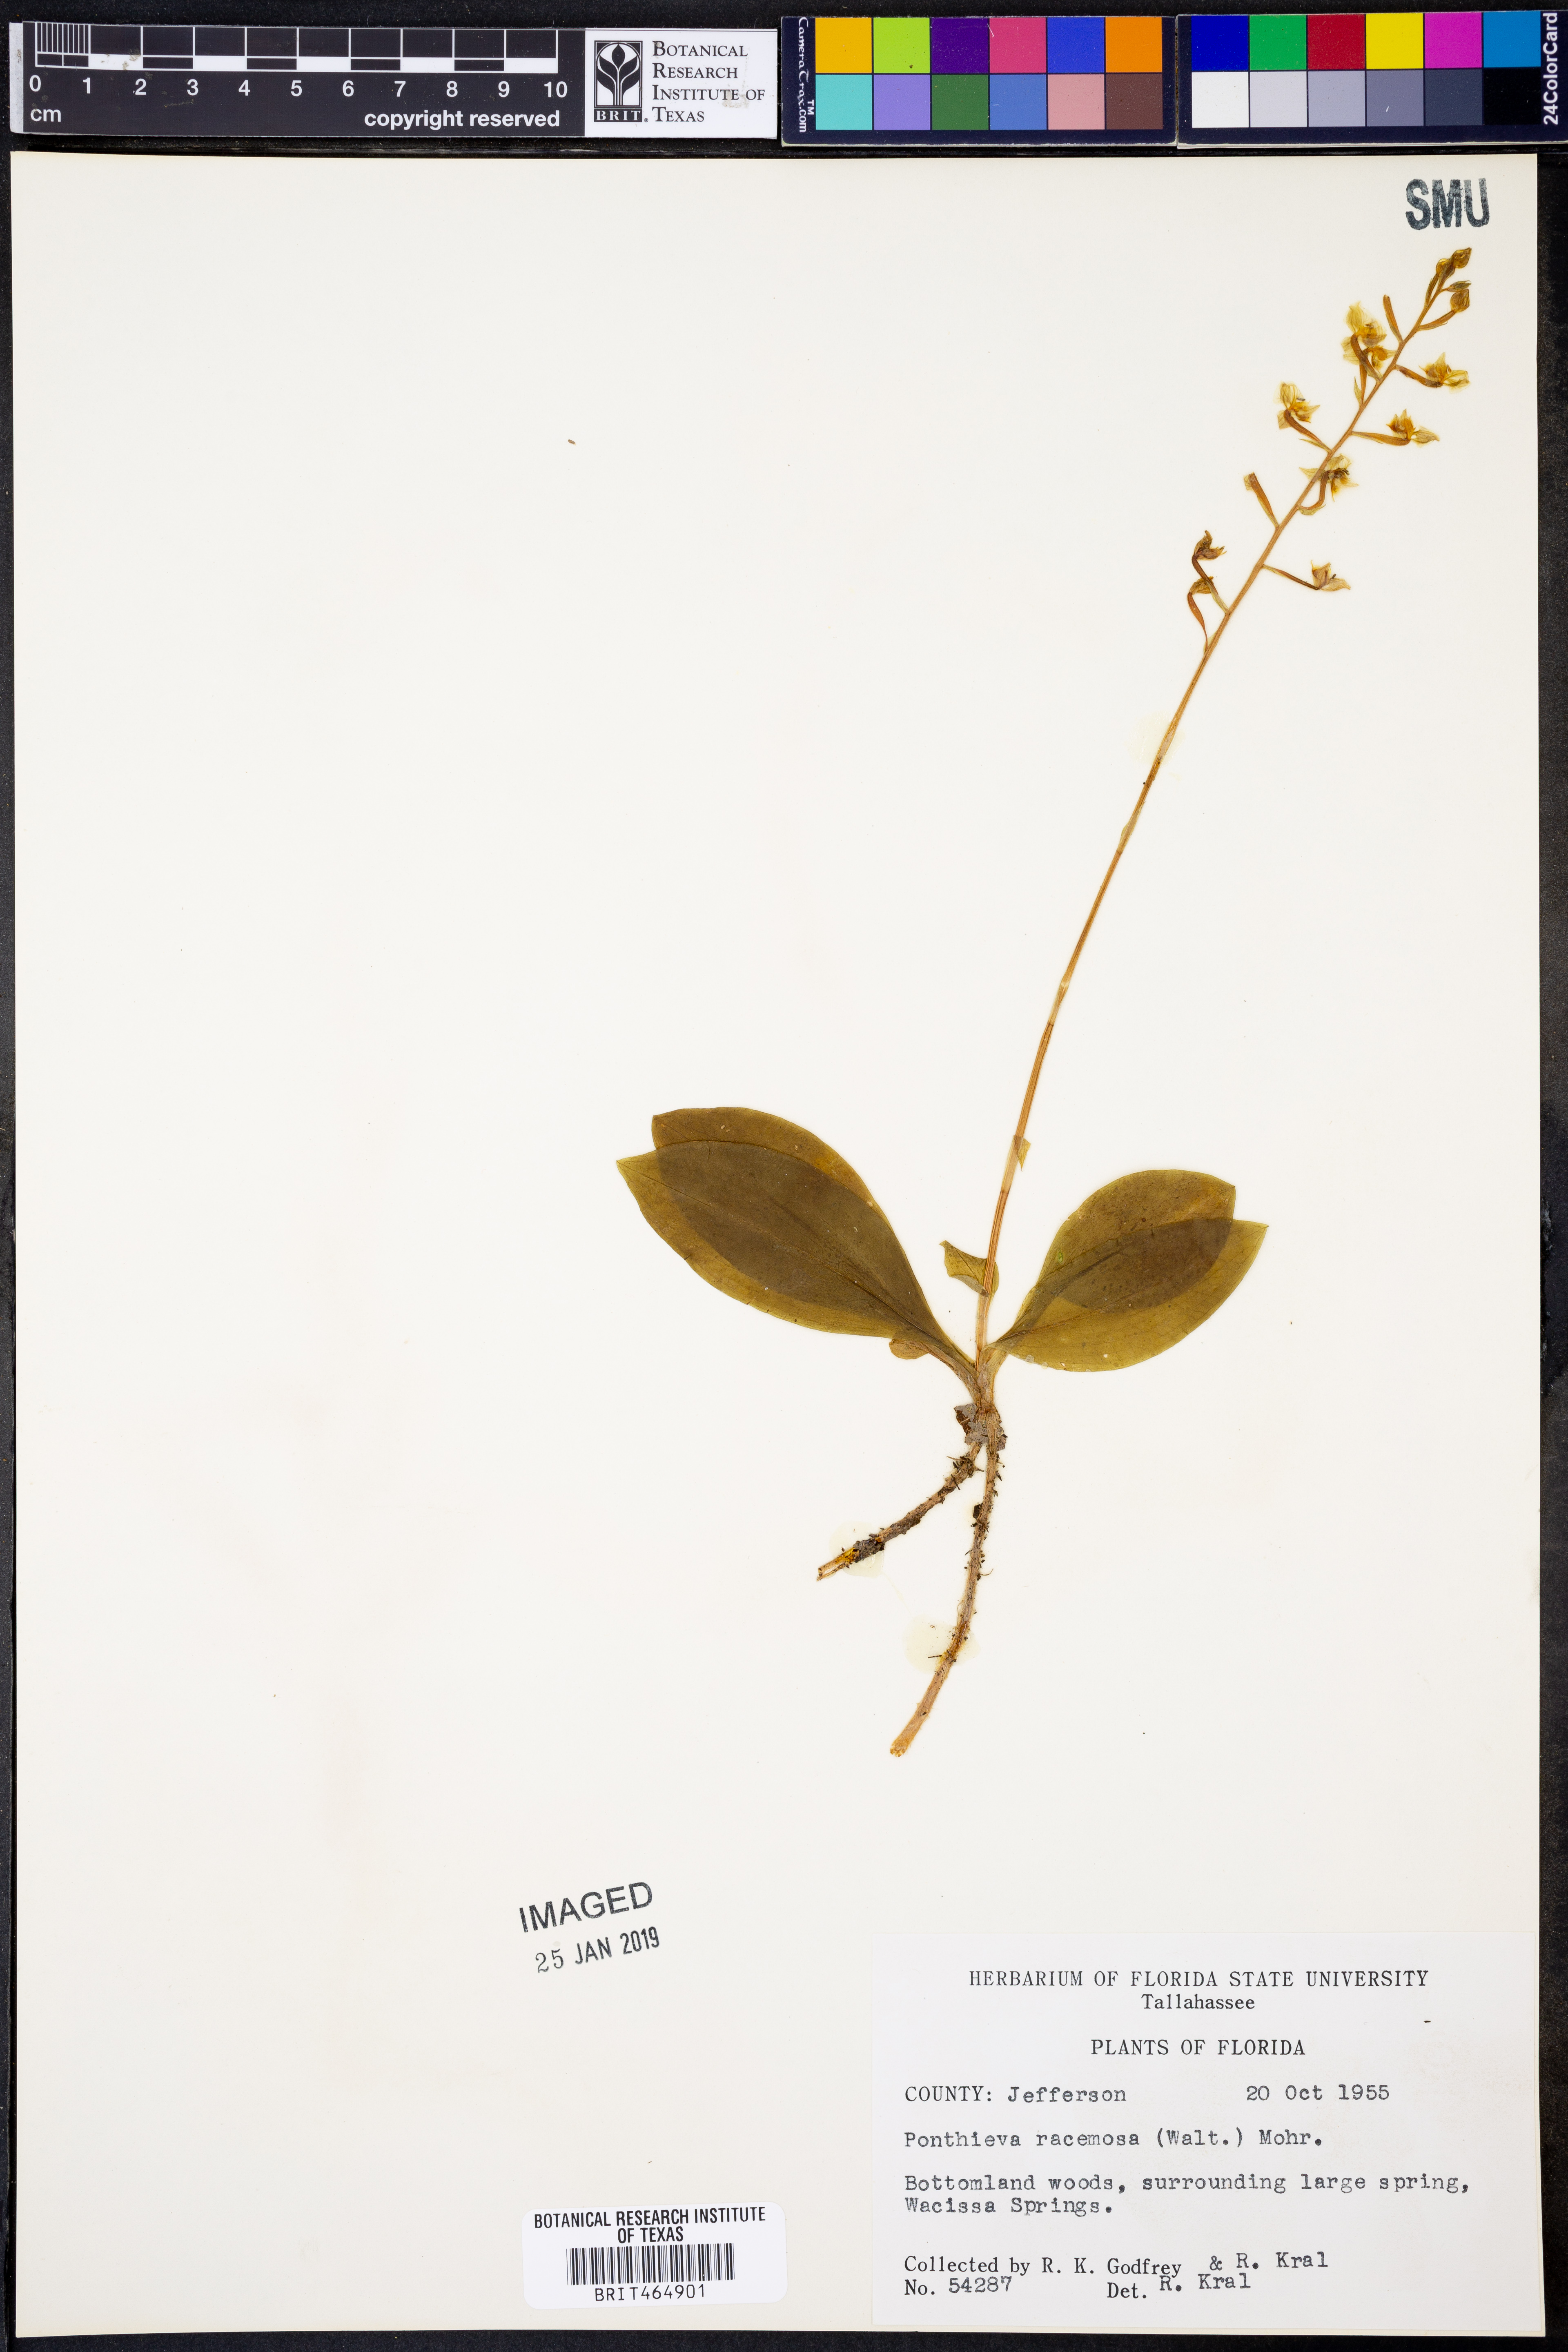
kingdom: Plantae
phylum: Tracheophyta
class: Liliopsida
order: Asparagales
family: Orchidaceae
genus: Ponthieva
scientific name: Ponthieva racemosa
